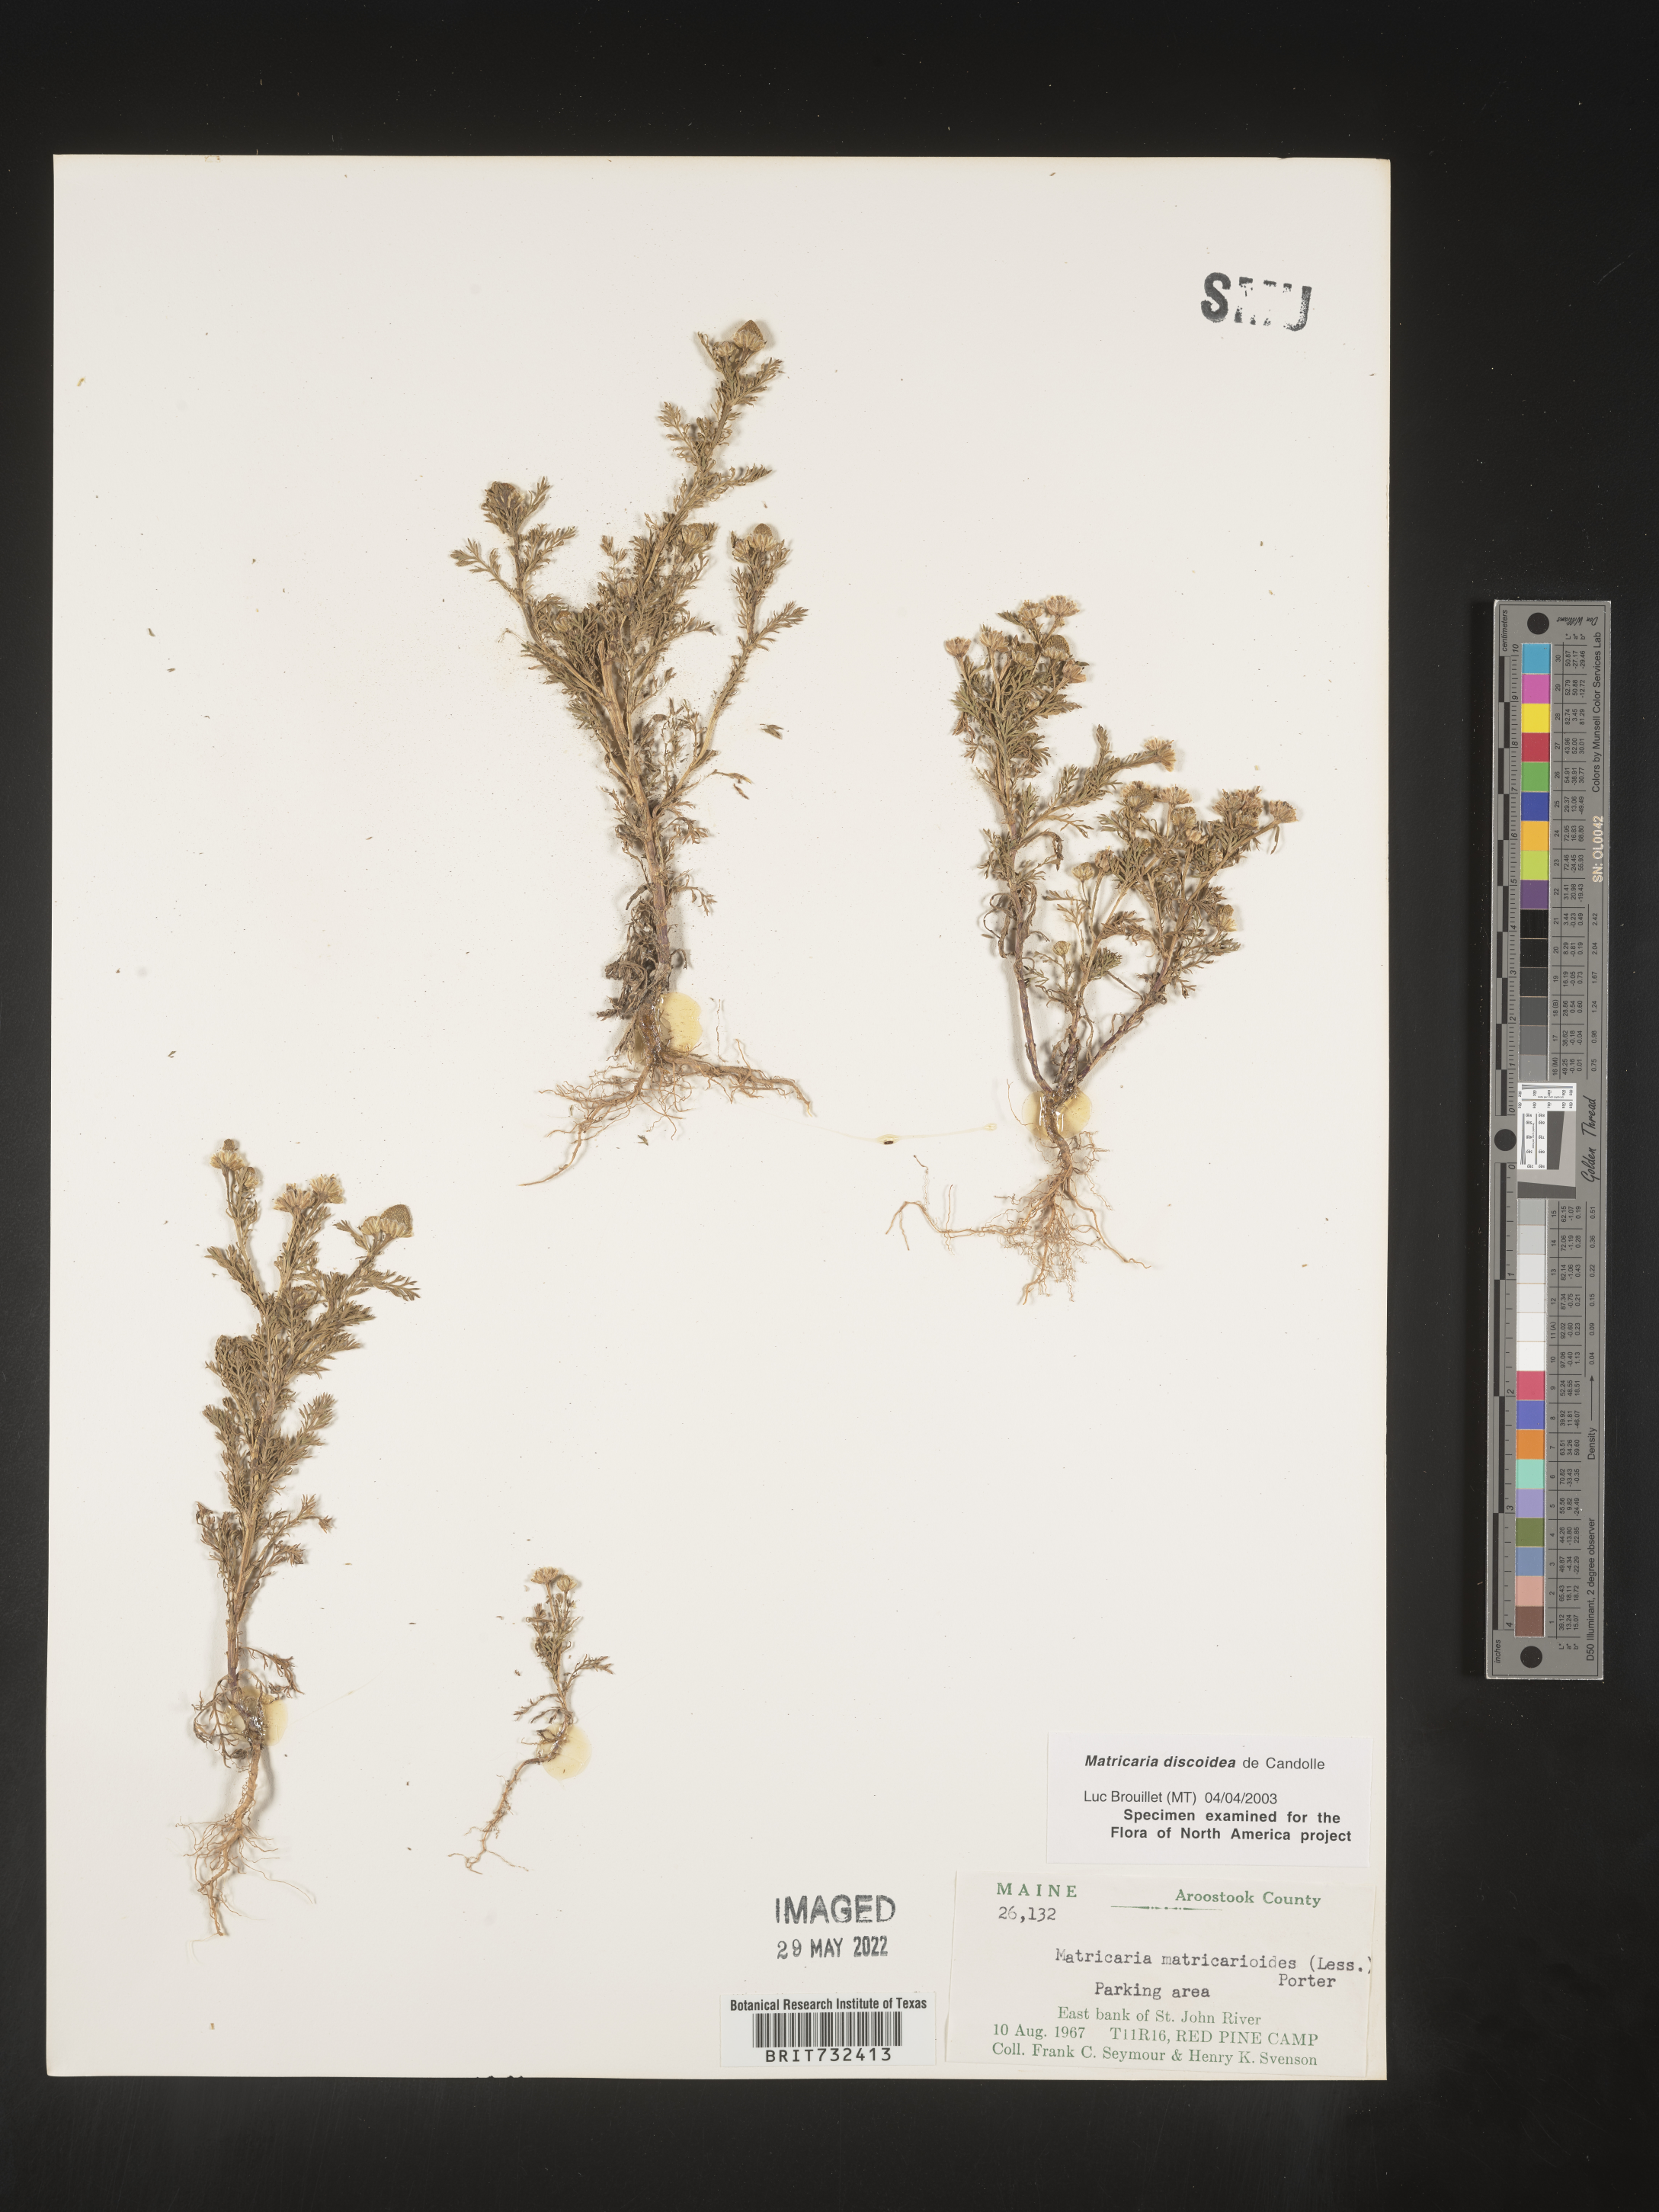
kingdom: Plantae
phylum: Tracheophyta
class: Magnoliopsida
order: Asterales
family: Asteraceae
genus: Matricaria
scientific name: Matricaria discoidea
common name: Disc mayweed
